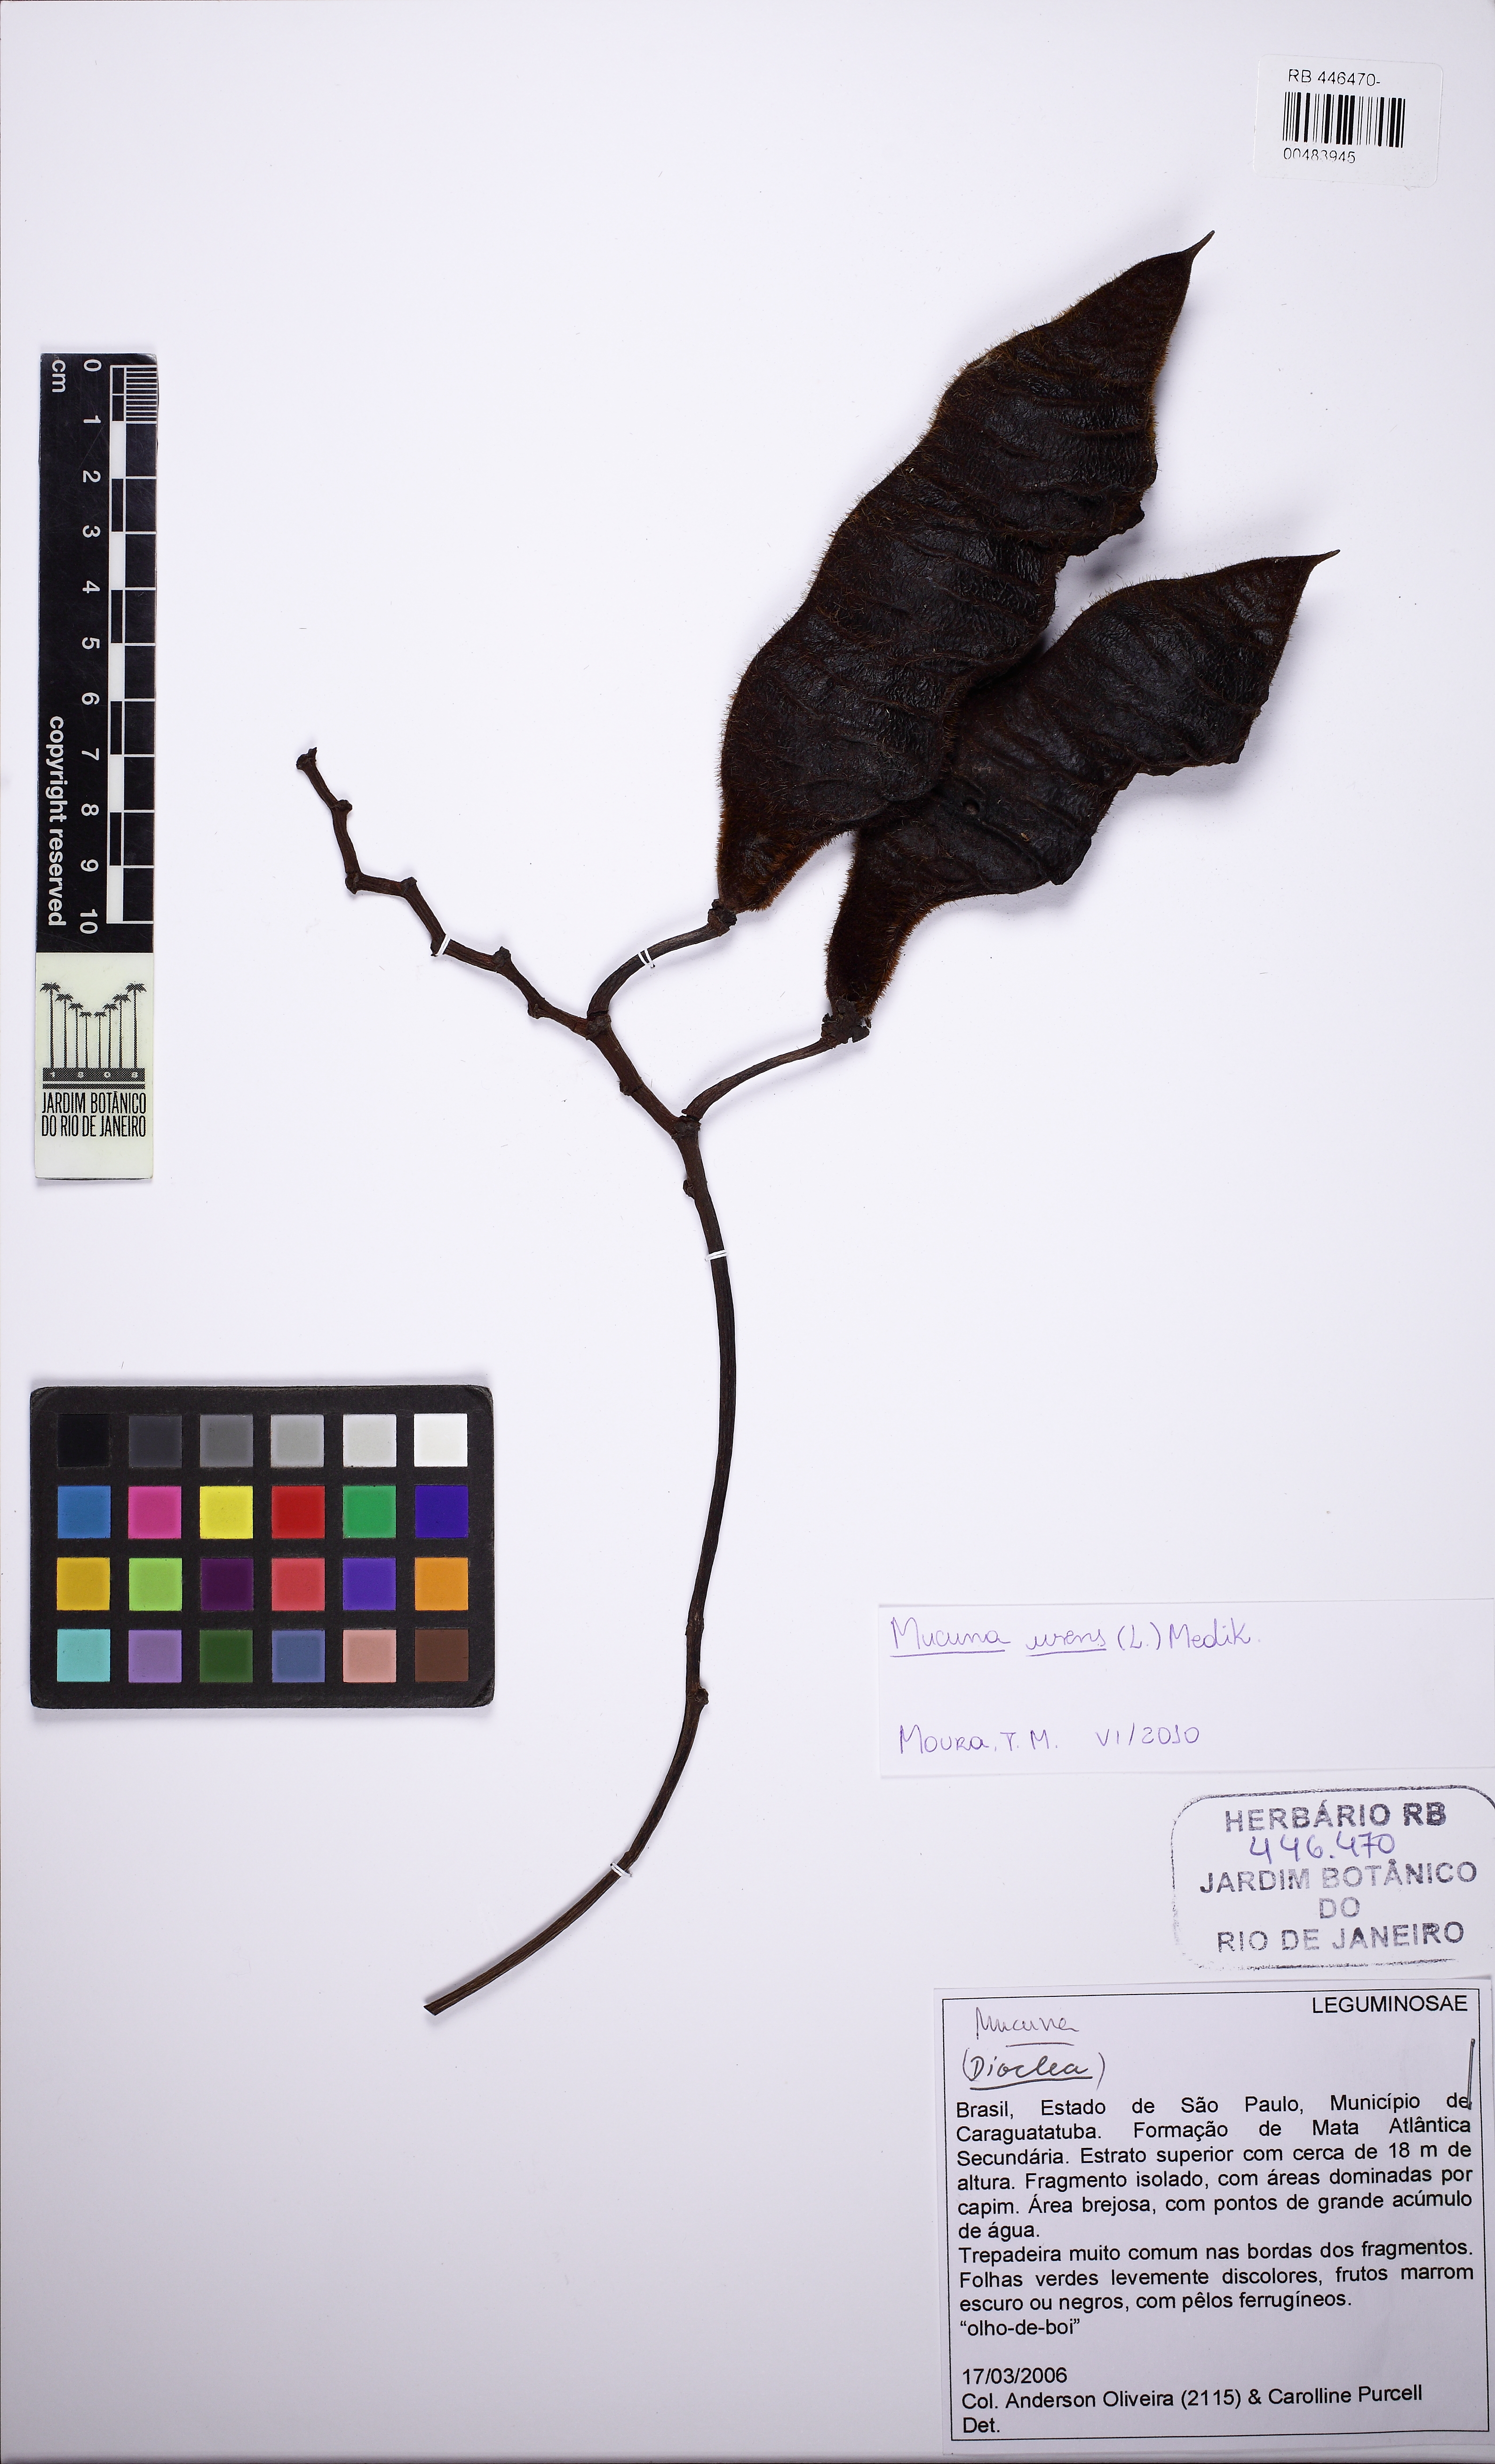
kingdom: Plantae
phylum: Tracheophyta
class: Magnoliopsida
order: Fabales
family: Fabaceae
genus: Mucuna
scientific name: Mucuna urens
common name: Red hamburger bean
